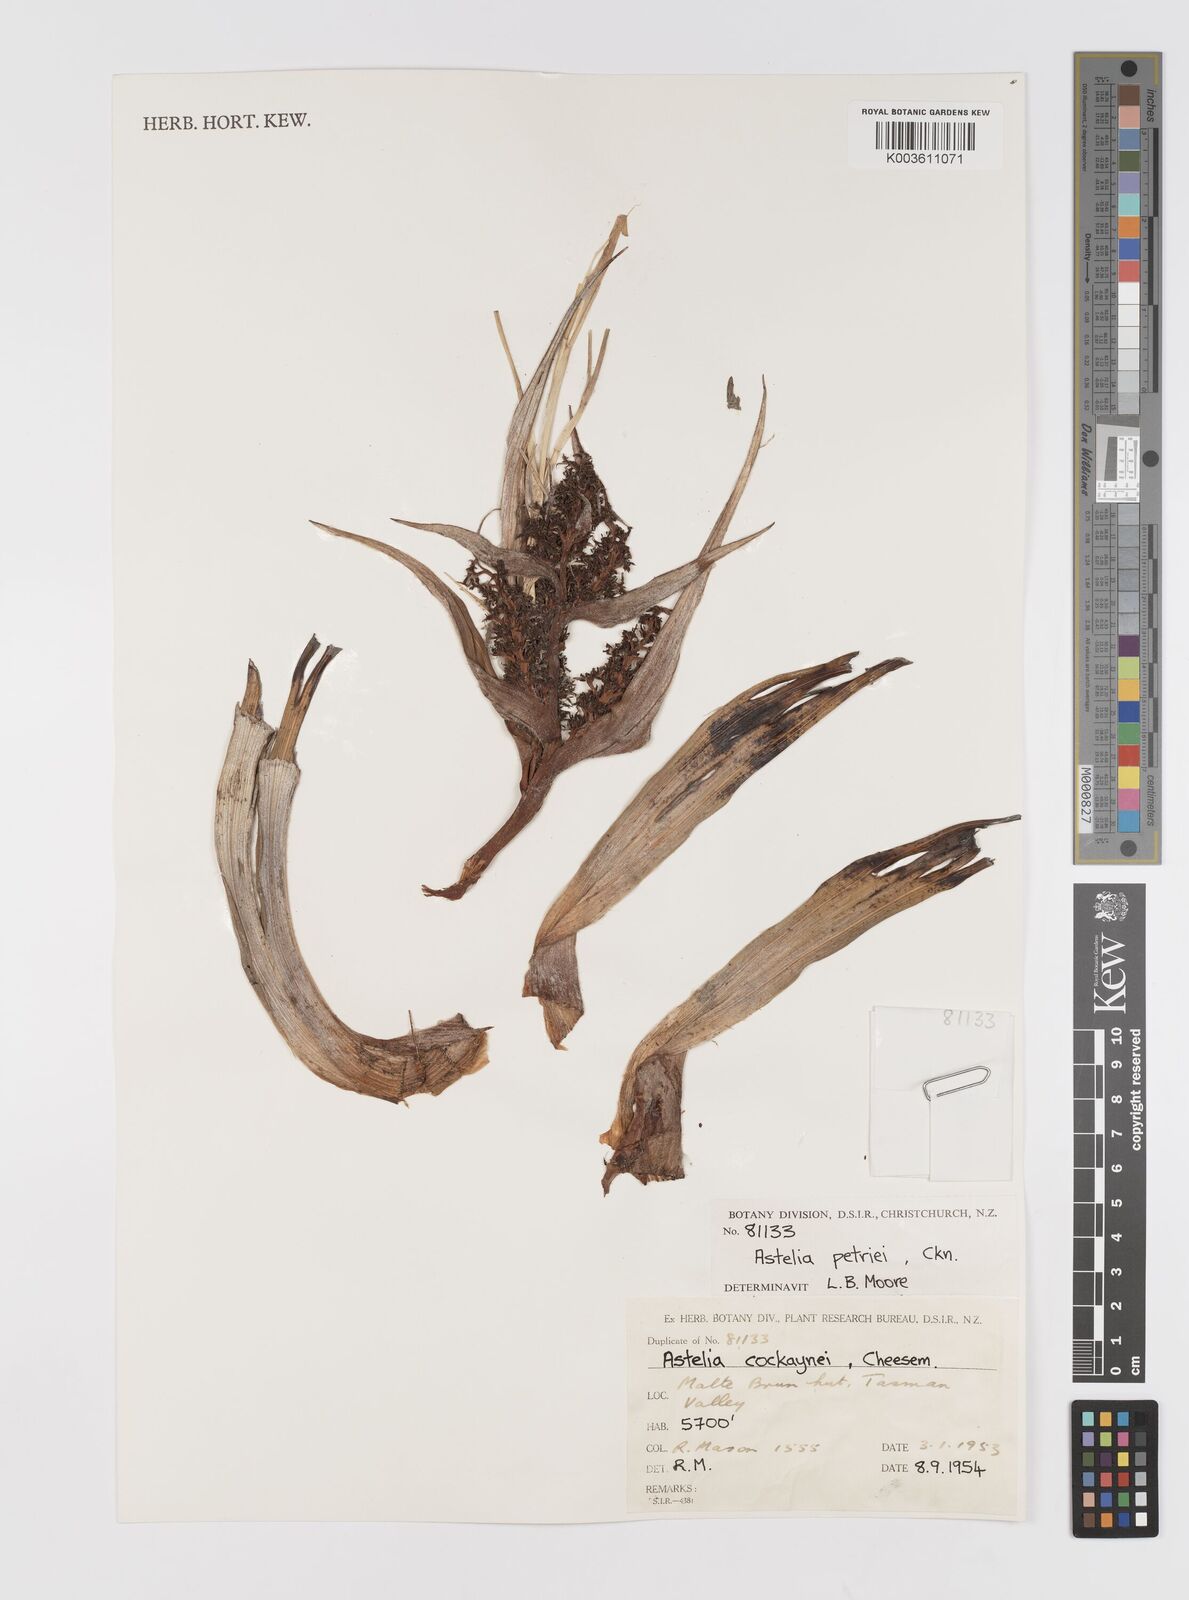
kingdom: Plantae
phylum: Tracheophyta
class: Liliopsida
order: Asparagales
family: Asteliaceae
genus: Astelia
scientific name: Astelia petriei
